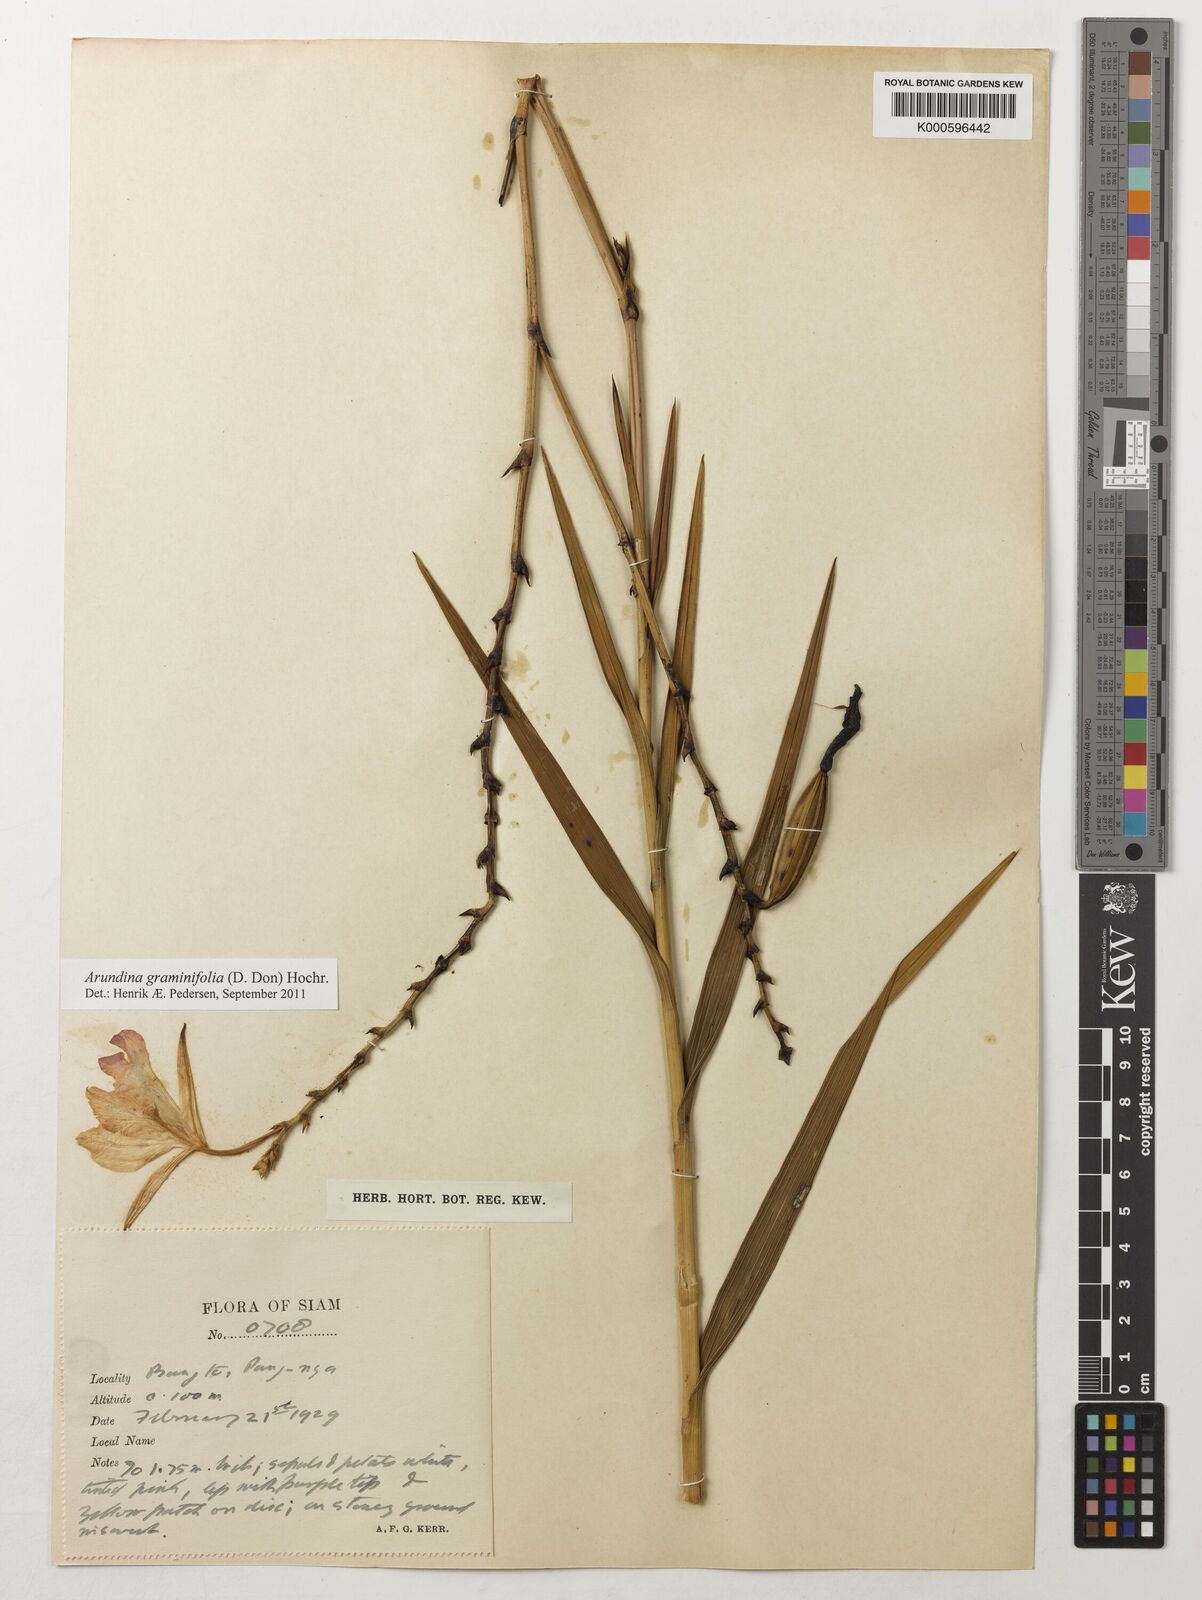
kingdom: Plantae
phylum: Tracheophyta
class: Liliopsida
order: Asparagales
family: Orchidaceae
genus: Arundina
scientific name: Arundina graminifolia
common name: Bamboo orchid
